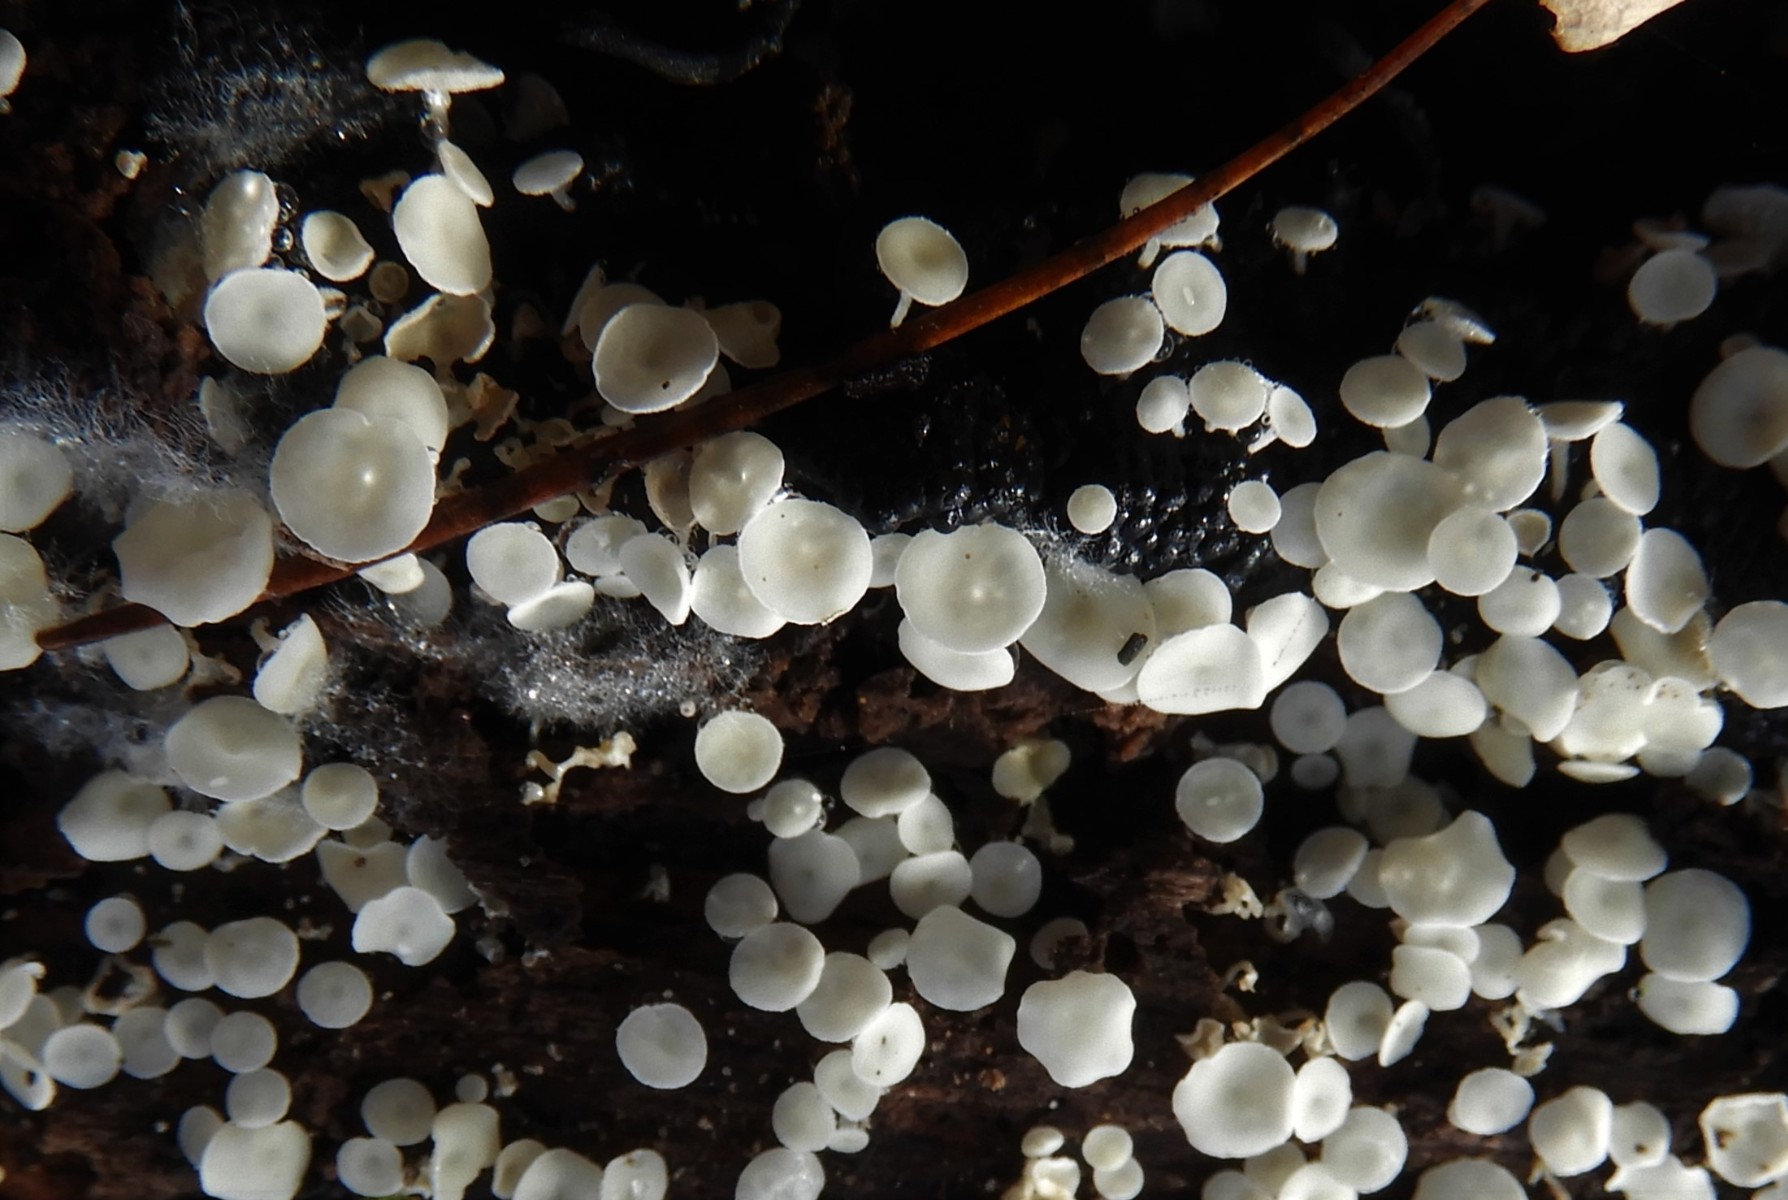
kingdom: Fungi
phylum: Ascomycota
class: Leotiomycetes
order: Helotiales
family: Lachnaceae
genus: Lachnum
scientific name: Lachnum
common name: frynseskive
